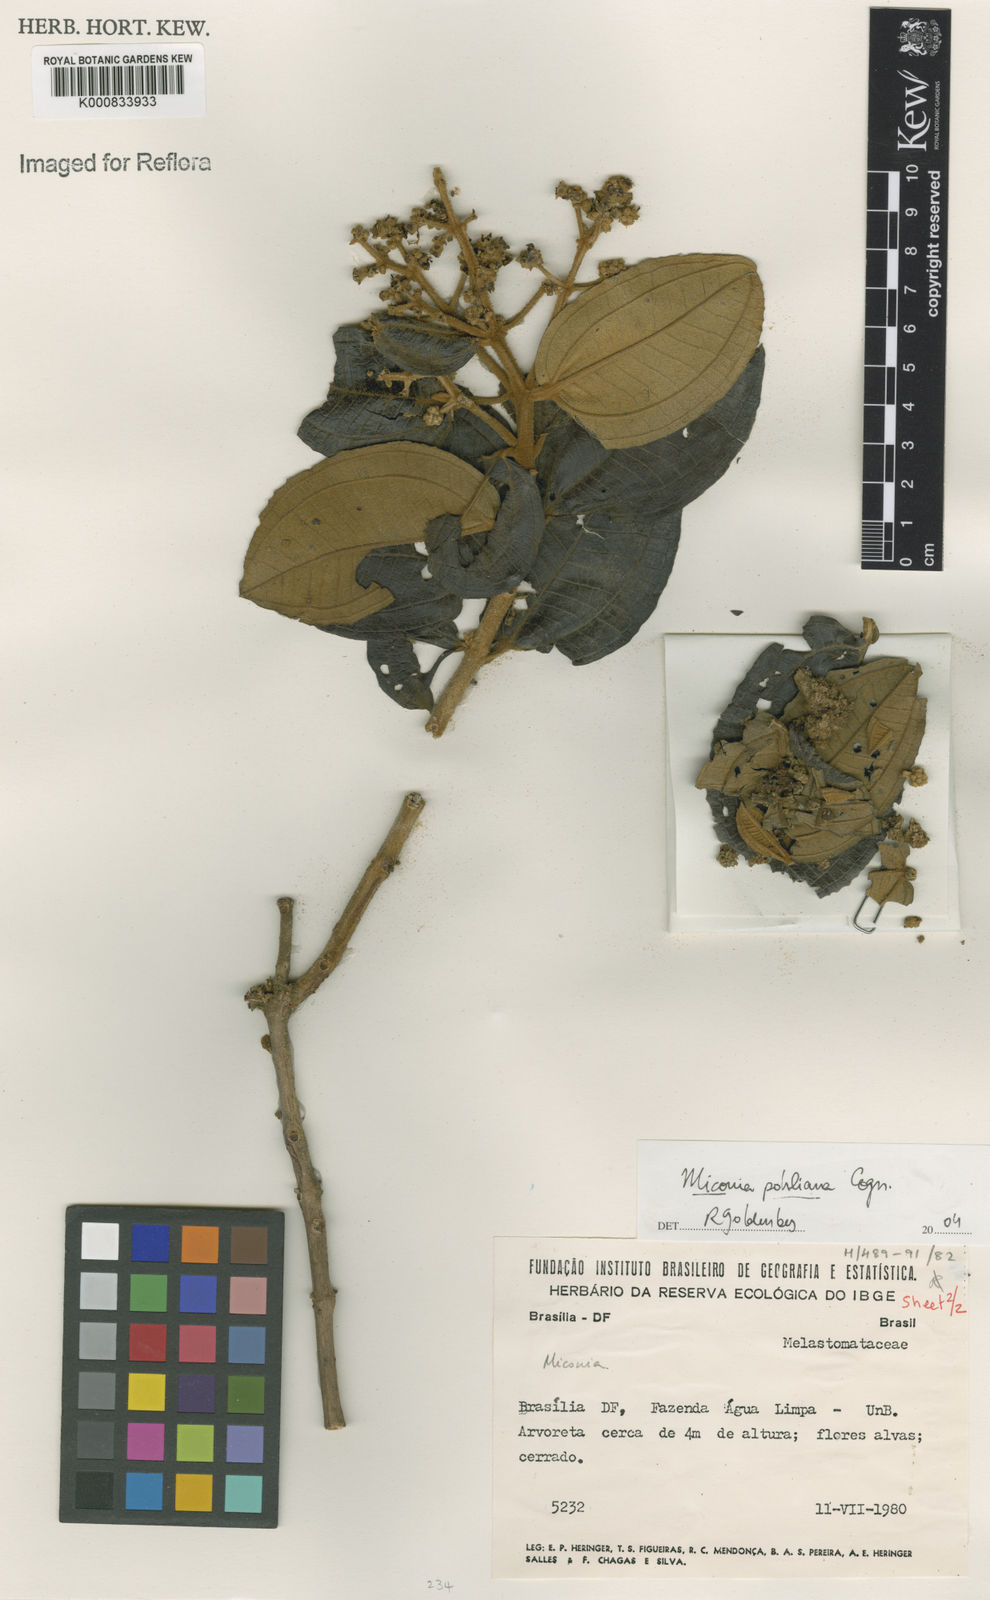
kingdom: Plantae
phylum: Tracheophyta
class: Magnoliopsida
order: Myrtales
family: Melastomataceae
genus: Miconia
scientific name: Miconia leucocarpa
